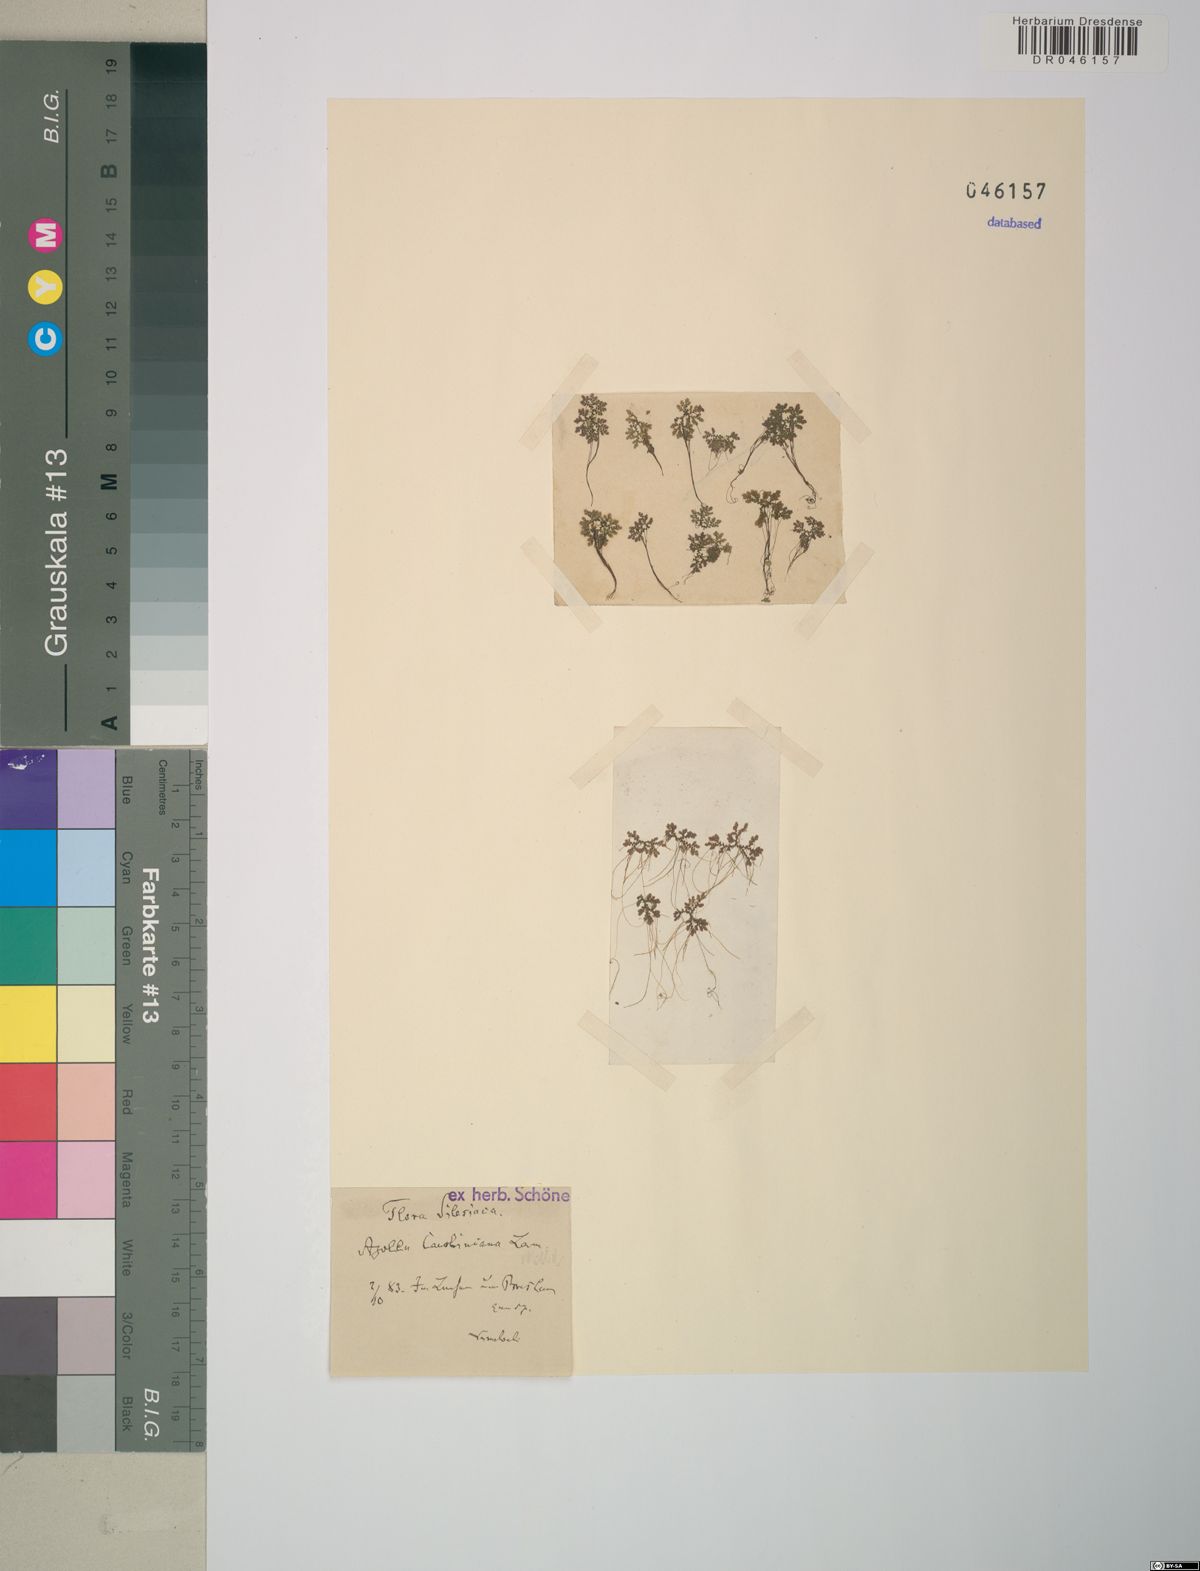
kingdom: Plantae
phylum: Tracheophyta
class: Polypodiopsida
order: Salviniales
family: Salviniaceae
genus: Azolla
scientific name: Azolla caroliniana
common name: Carolina mosquitofern
